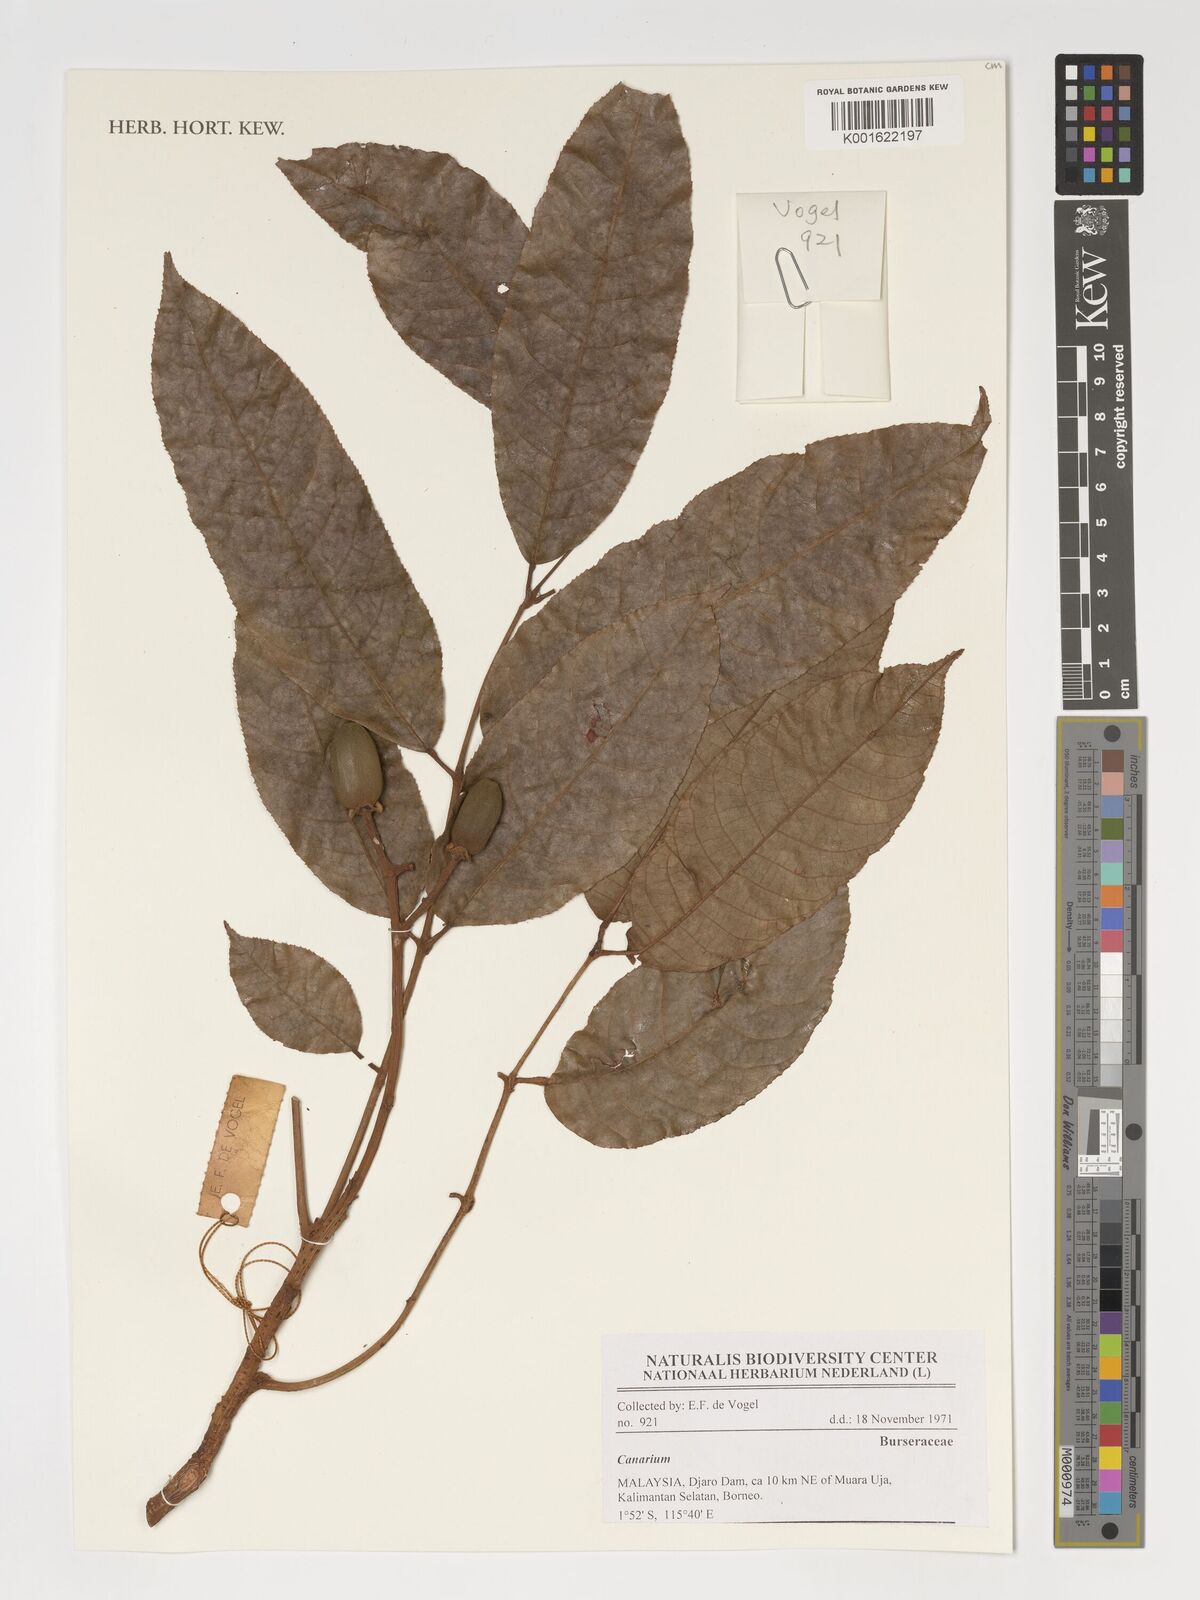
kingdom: Plantae
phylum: Tracheophyta
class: Magnoliopsida
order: Sapindales
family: Burseraceae
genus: Canarium
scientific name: Canarium
